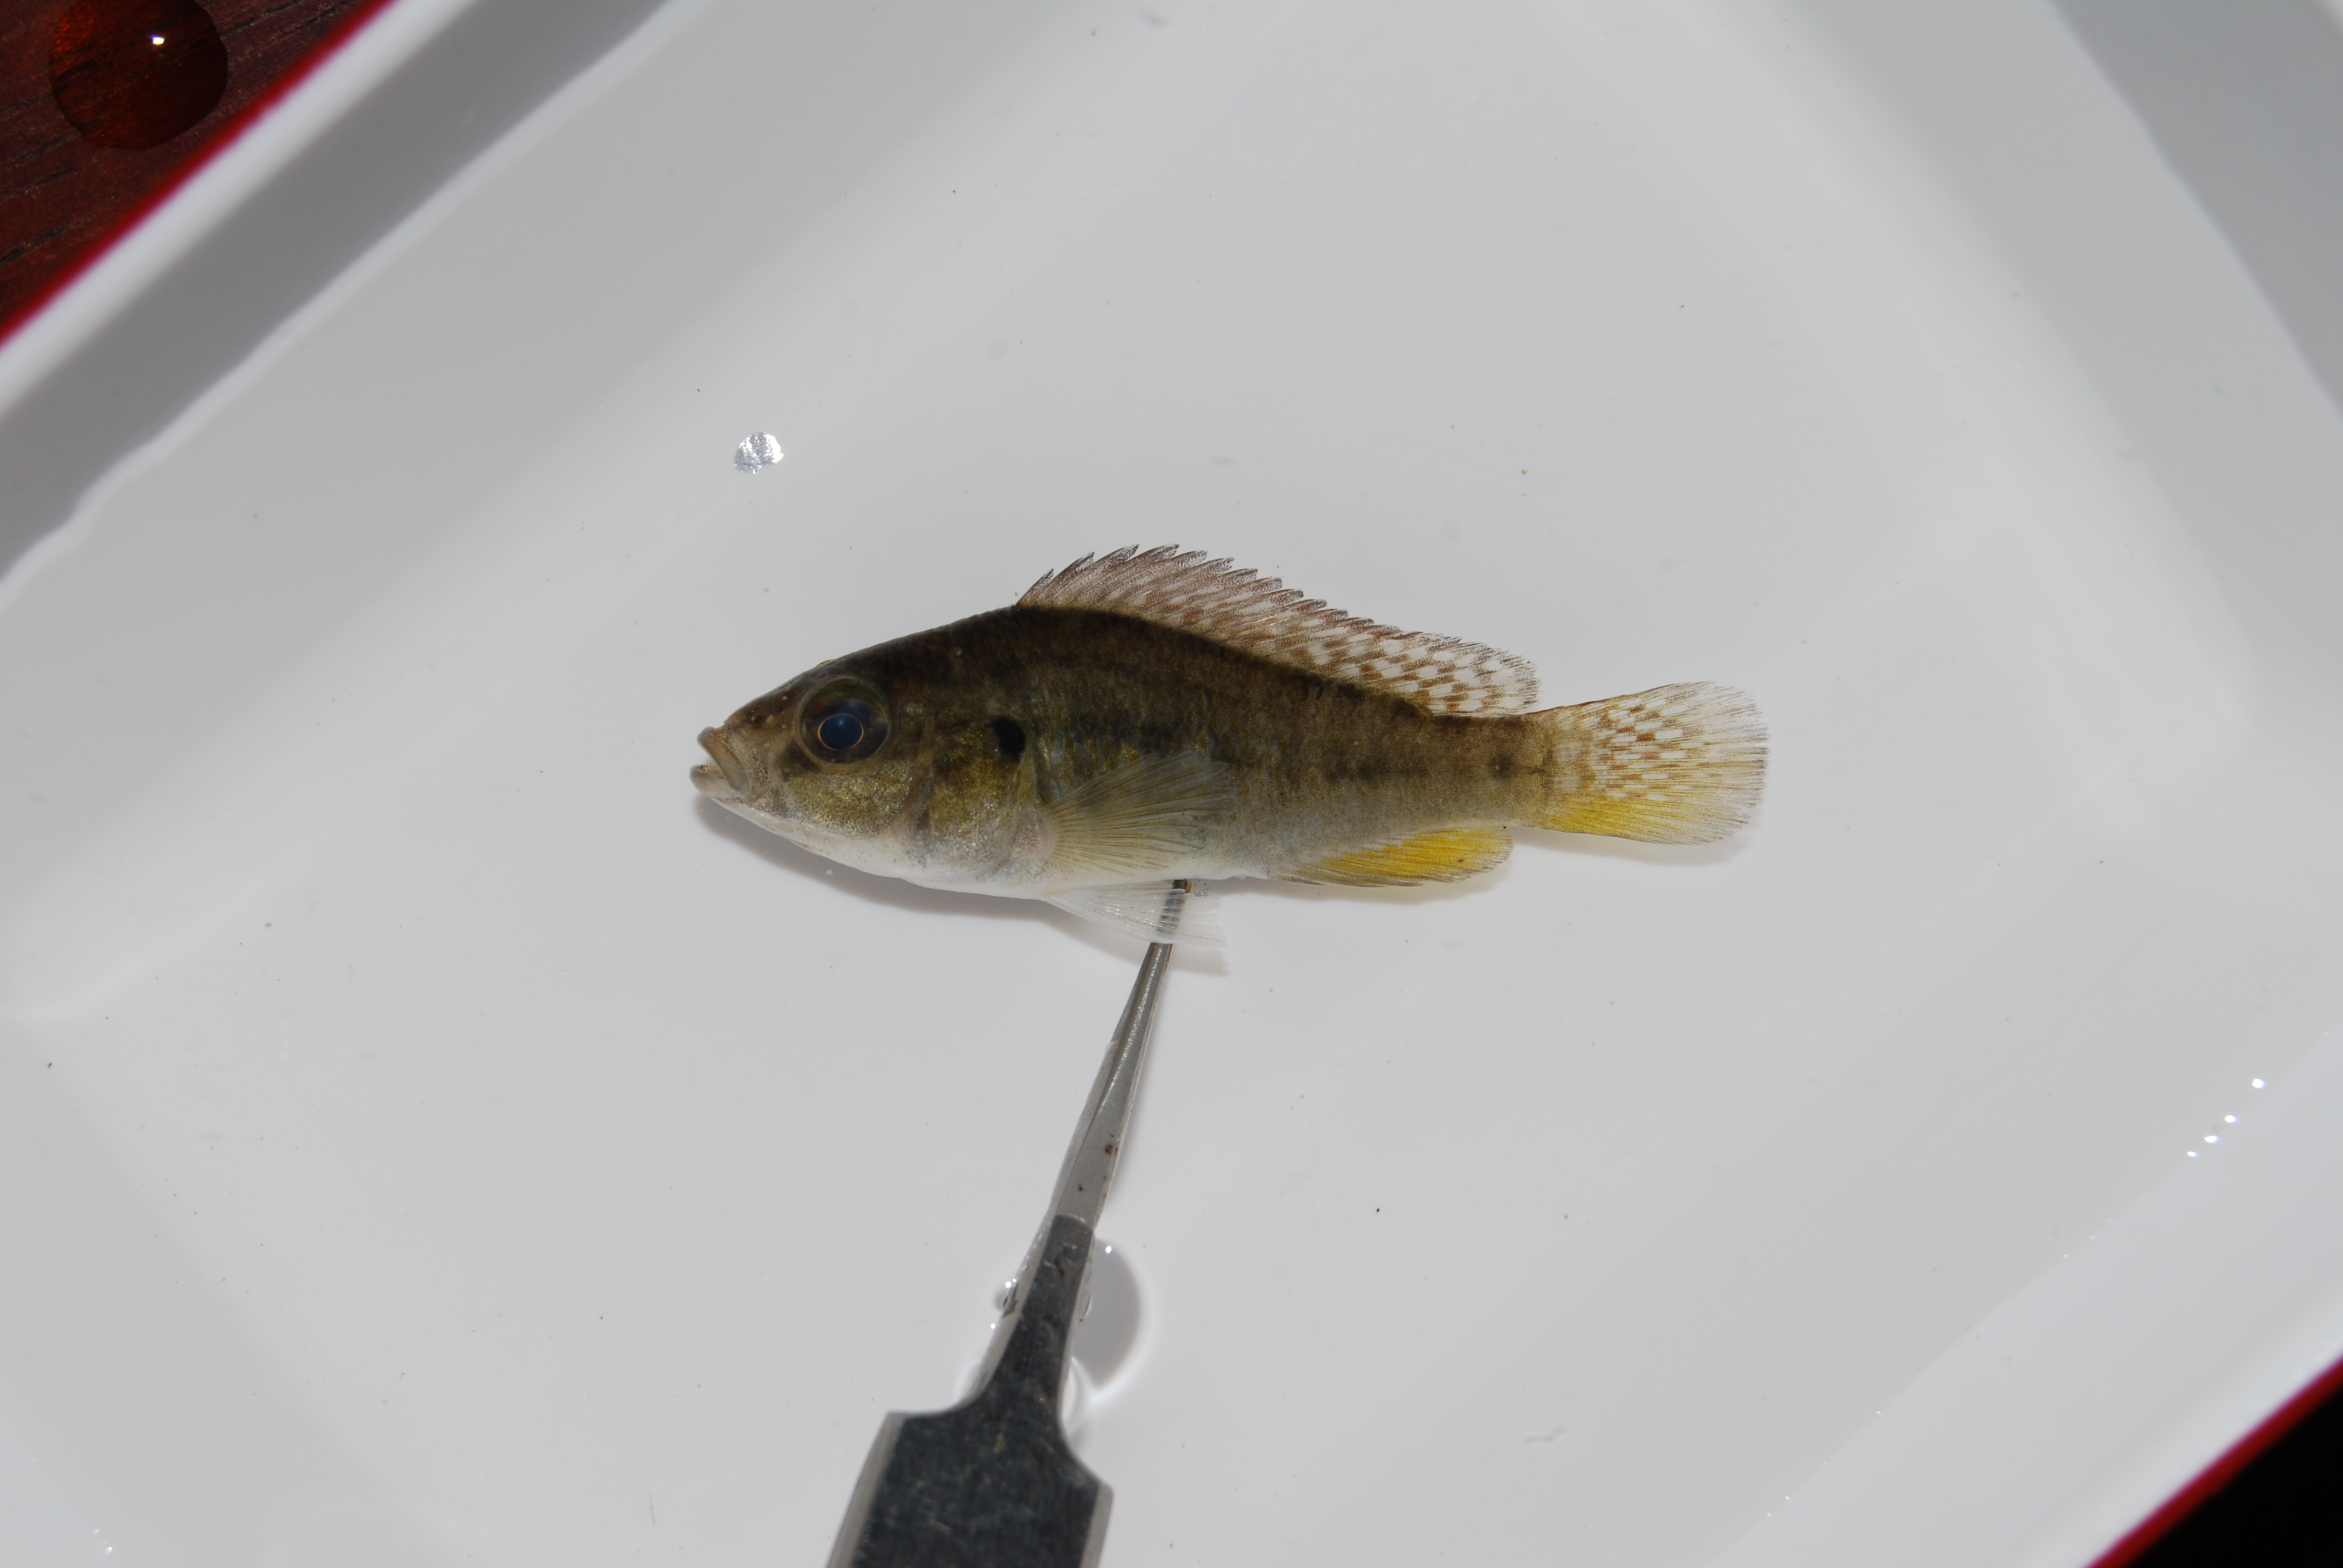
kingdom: Animalia
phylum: Chordata
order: Perciformes
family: Cichlidae
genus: Pseudocrenilabrus
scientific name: Pseudocrenilabrus philander
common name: Southern mouthbrooder
